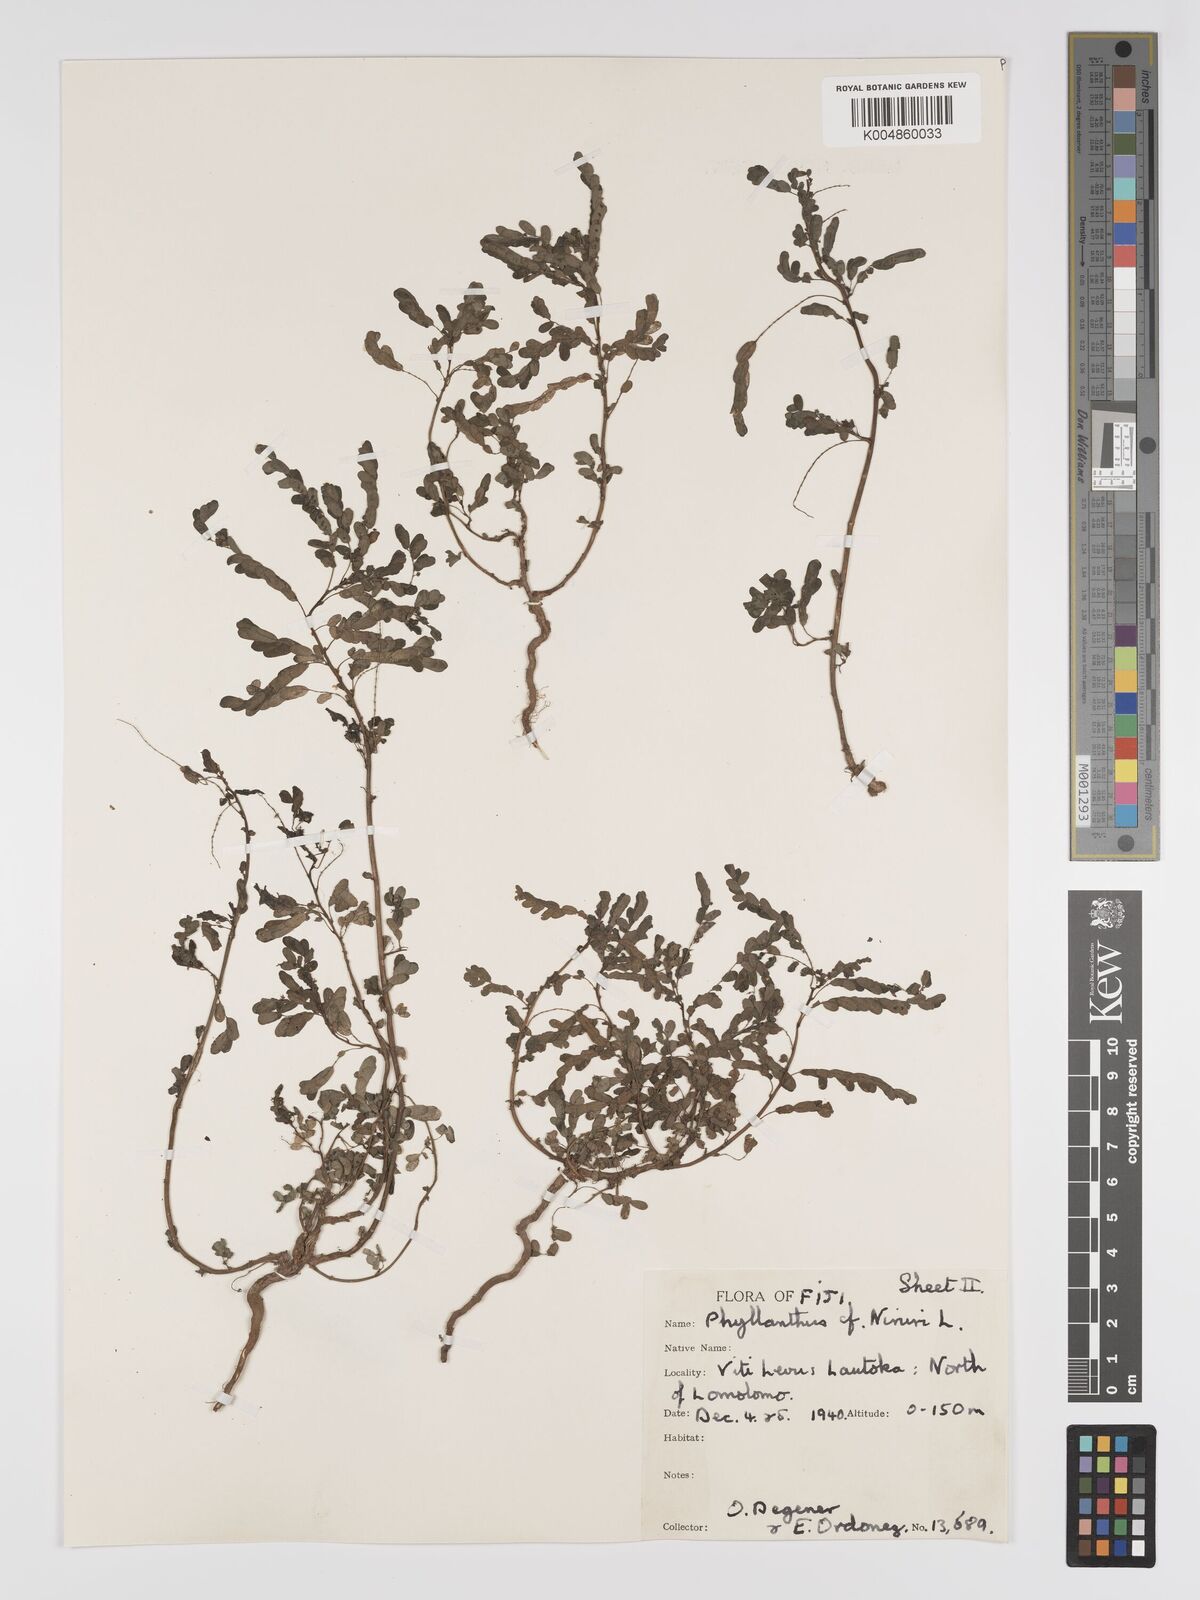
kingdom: Plantae
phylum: Tracheophyta
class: Magnoliopsida
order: Malpighiales
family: Phyllanthaceae
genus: Phyllanthus
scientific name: Phyllanthus
